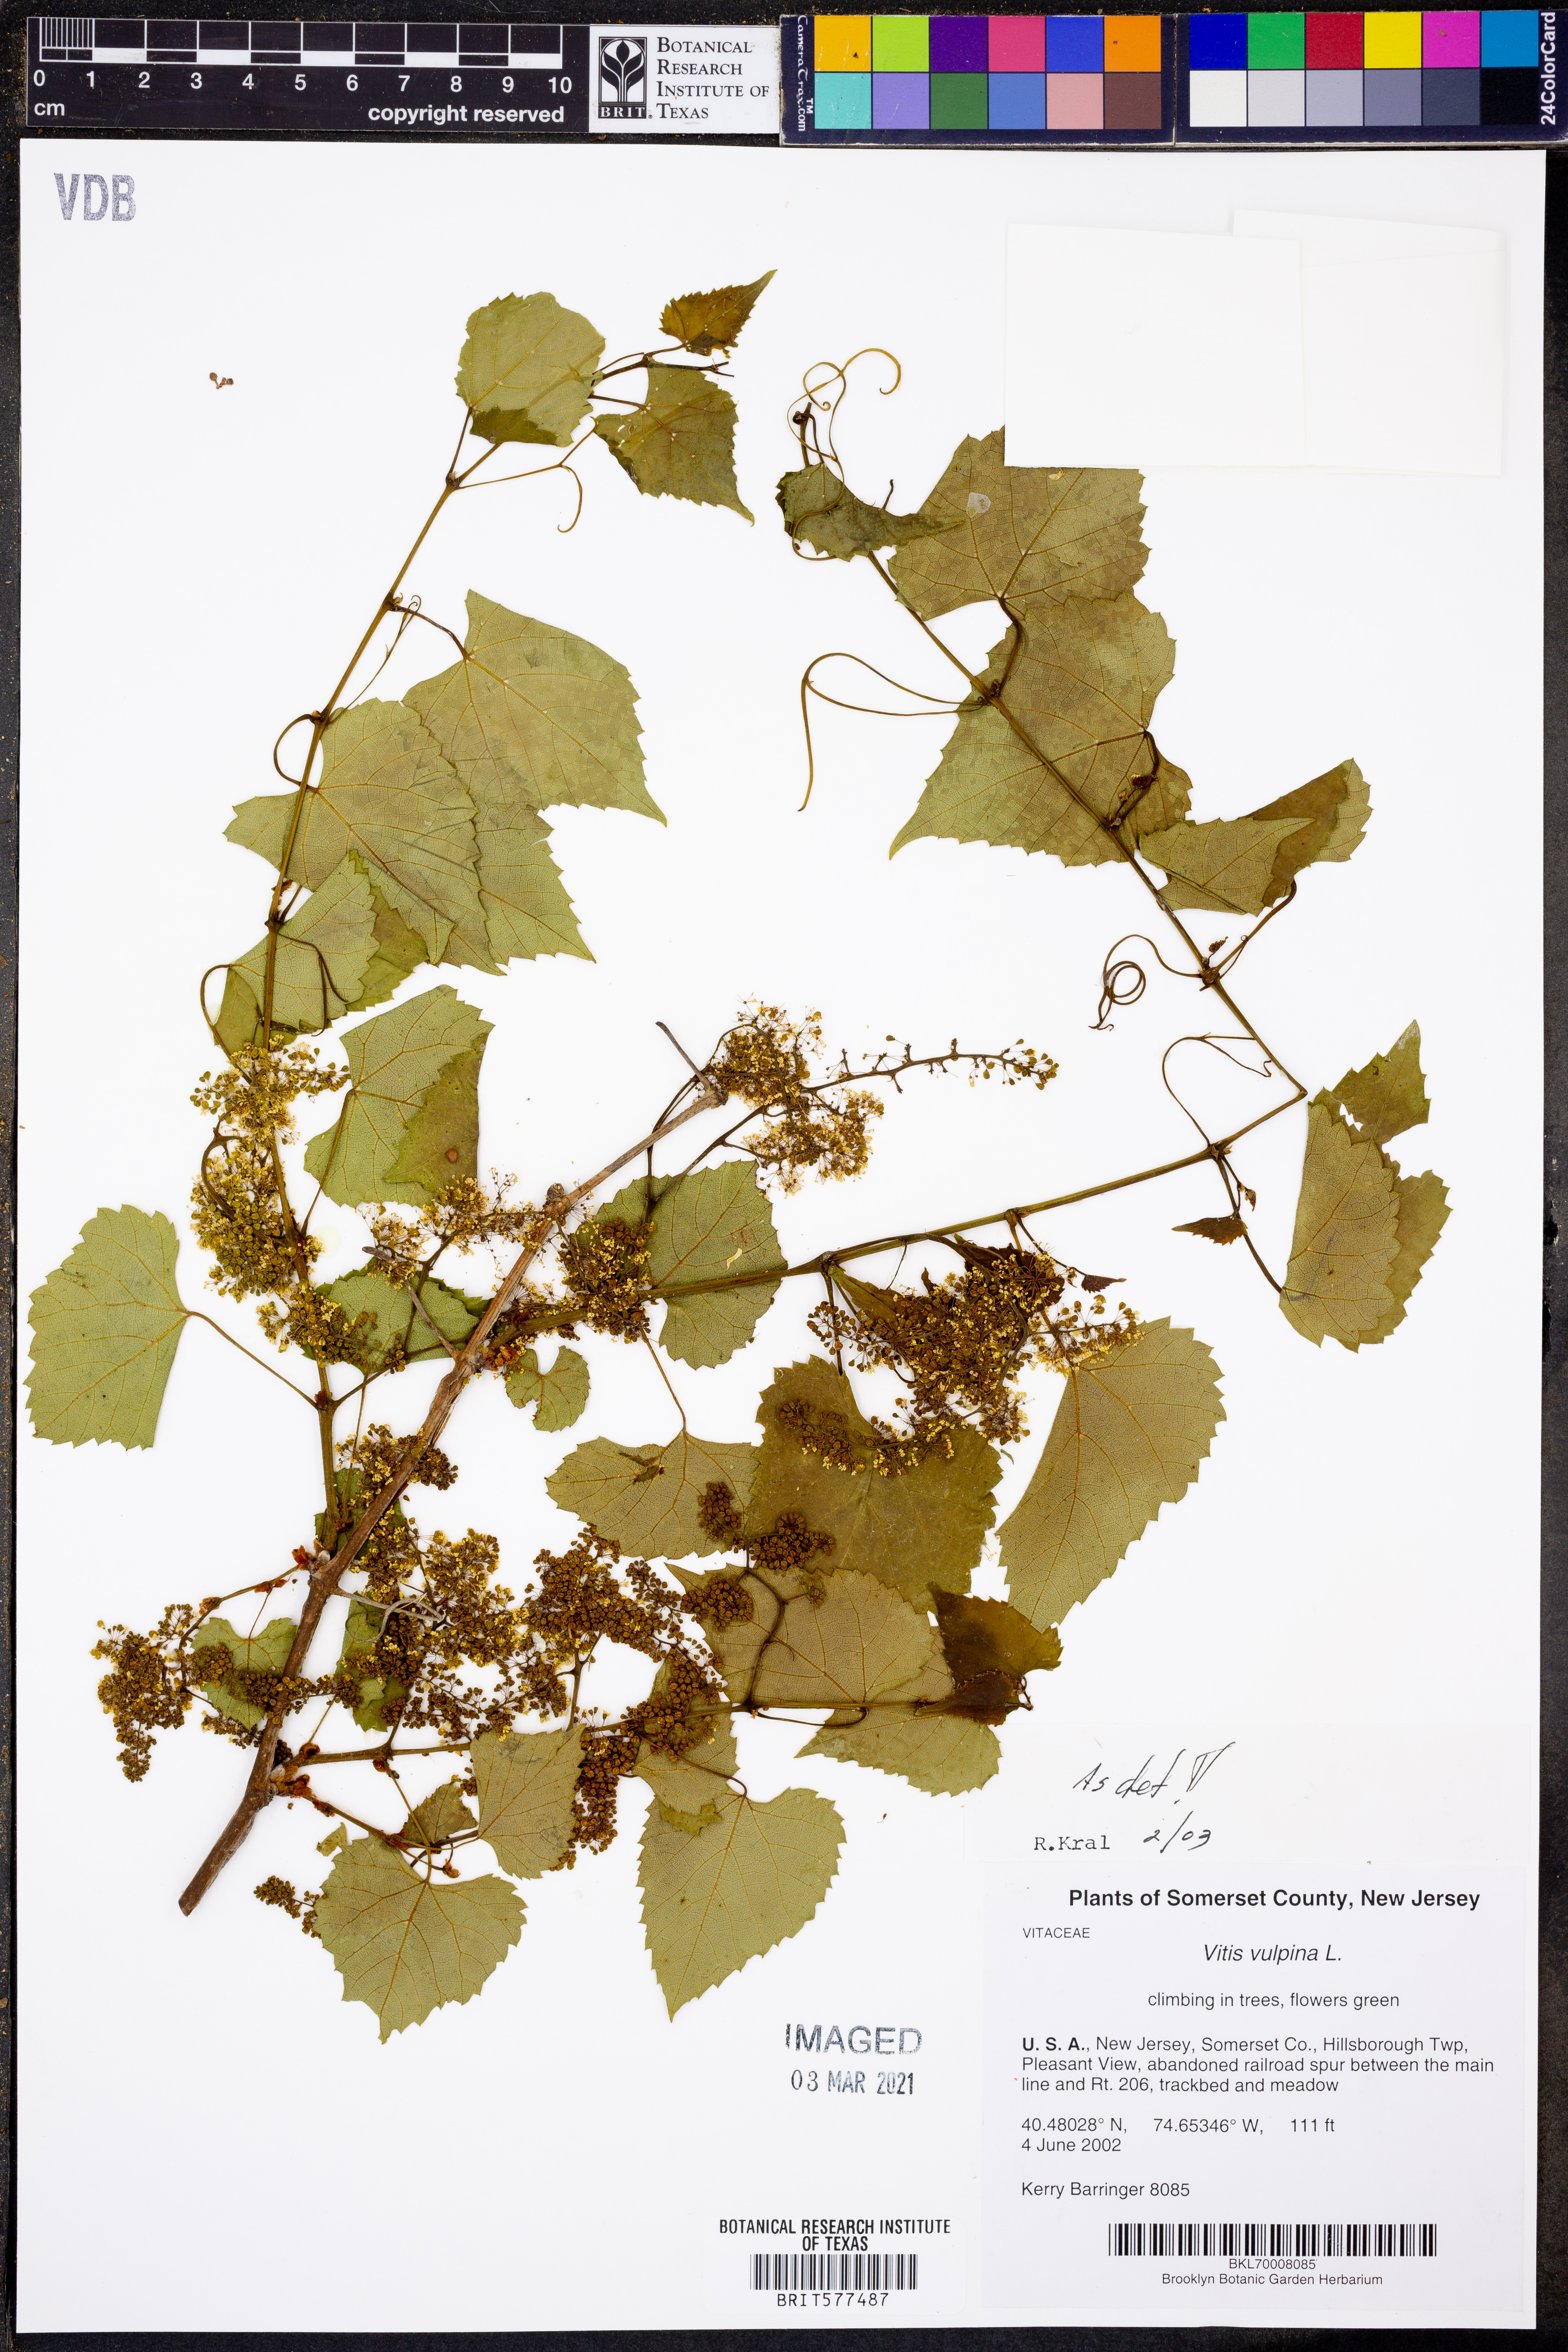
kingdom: Plantae
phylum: Tracheophyta
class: Magnoliopsida
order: Vitales
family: Vitaceae
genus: Vitis
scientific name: Vitis vulpina
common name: Frost grape
